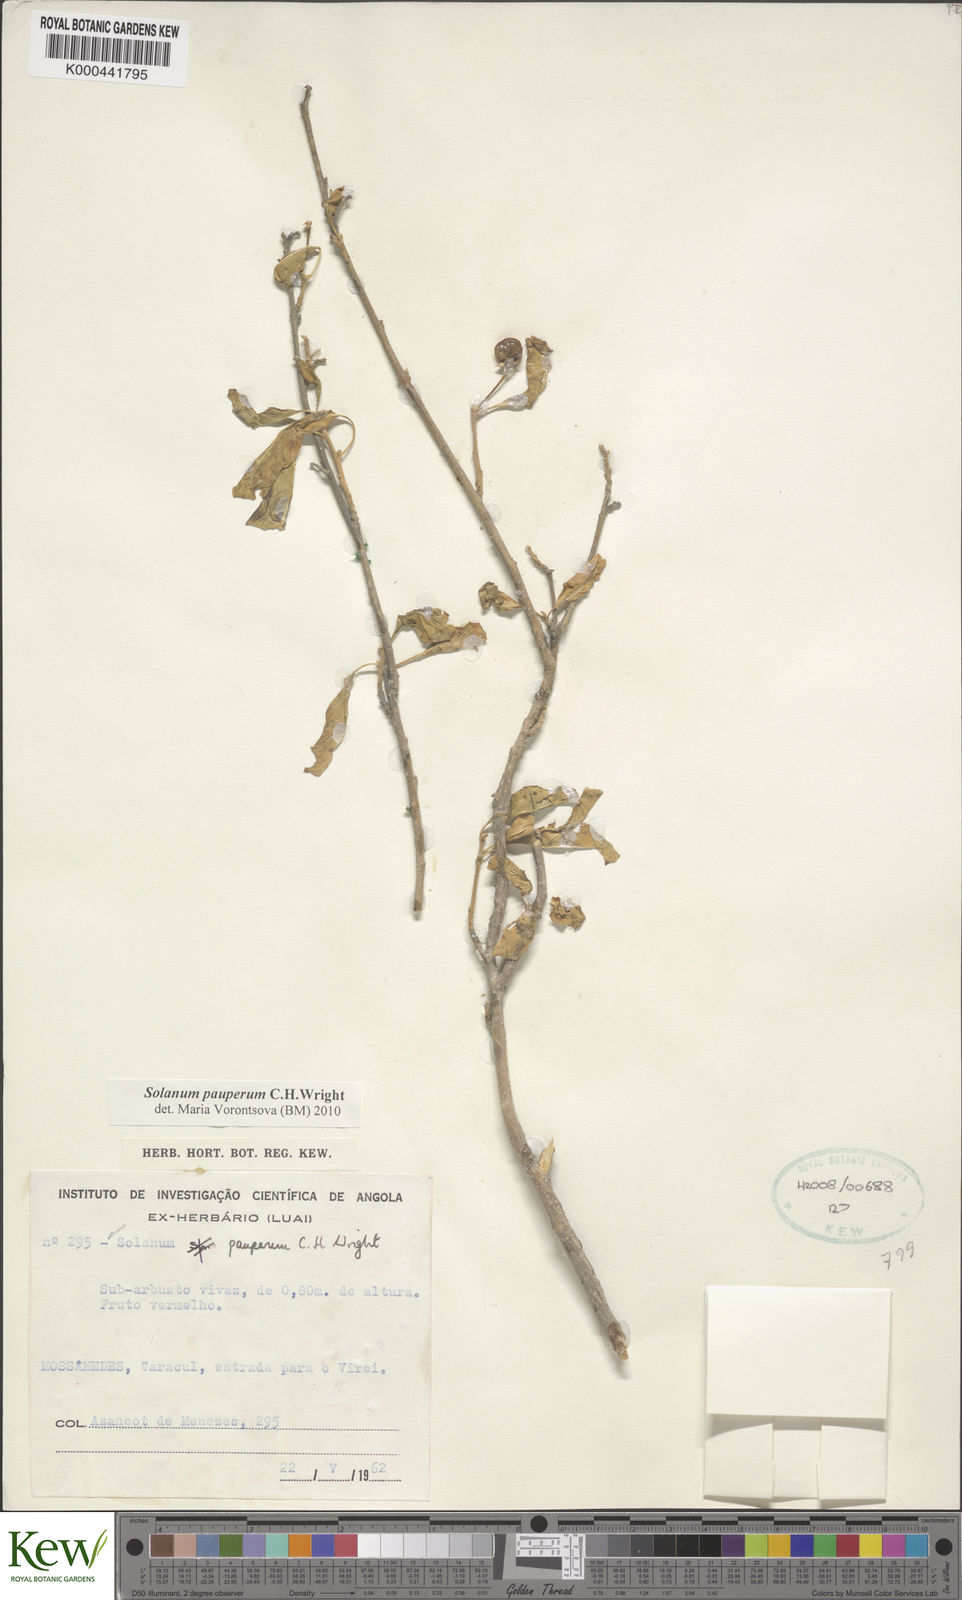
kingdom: Plantae
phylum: Tracheophyta
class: Magnoliopsida
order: Solanales
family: Solanaceae
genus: Solanum
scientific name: Solanum anomalum
